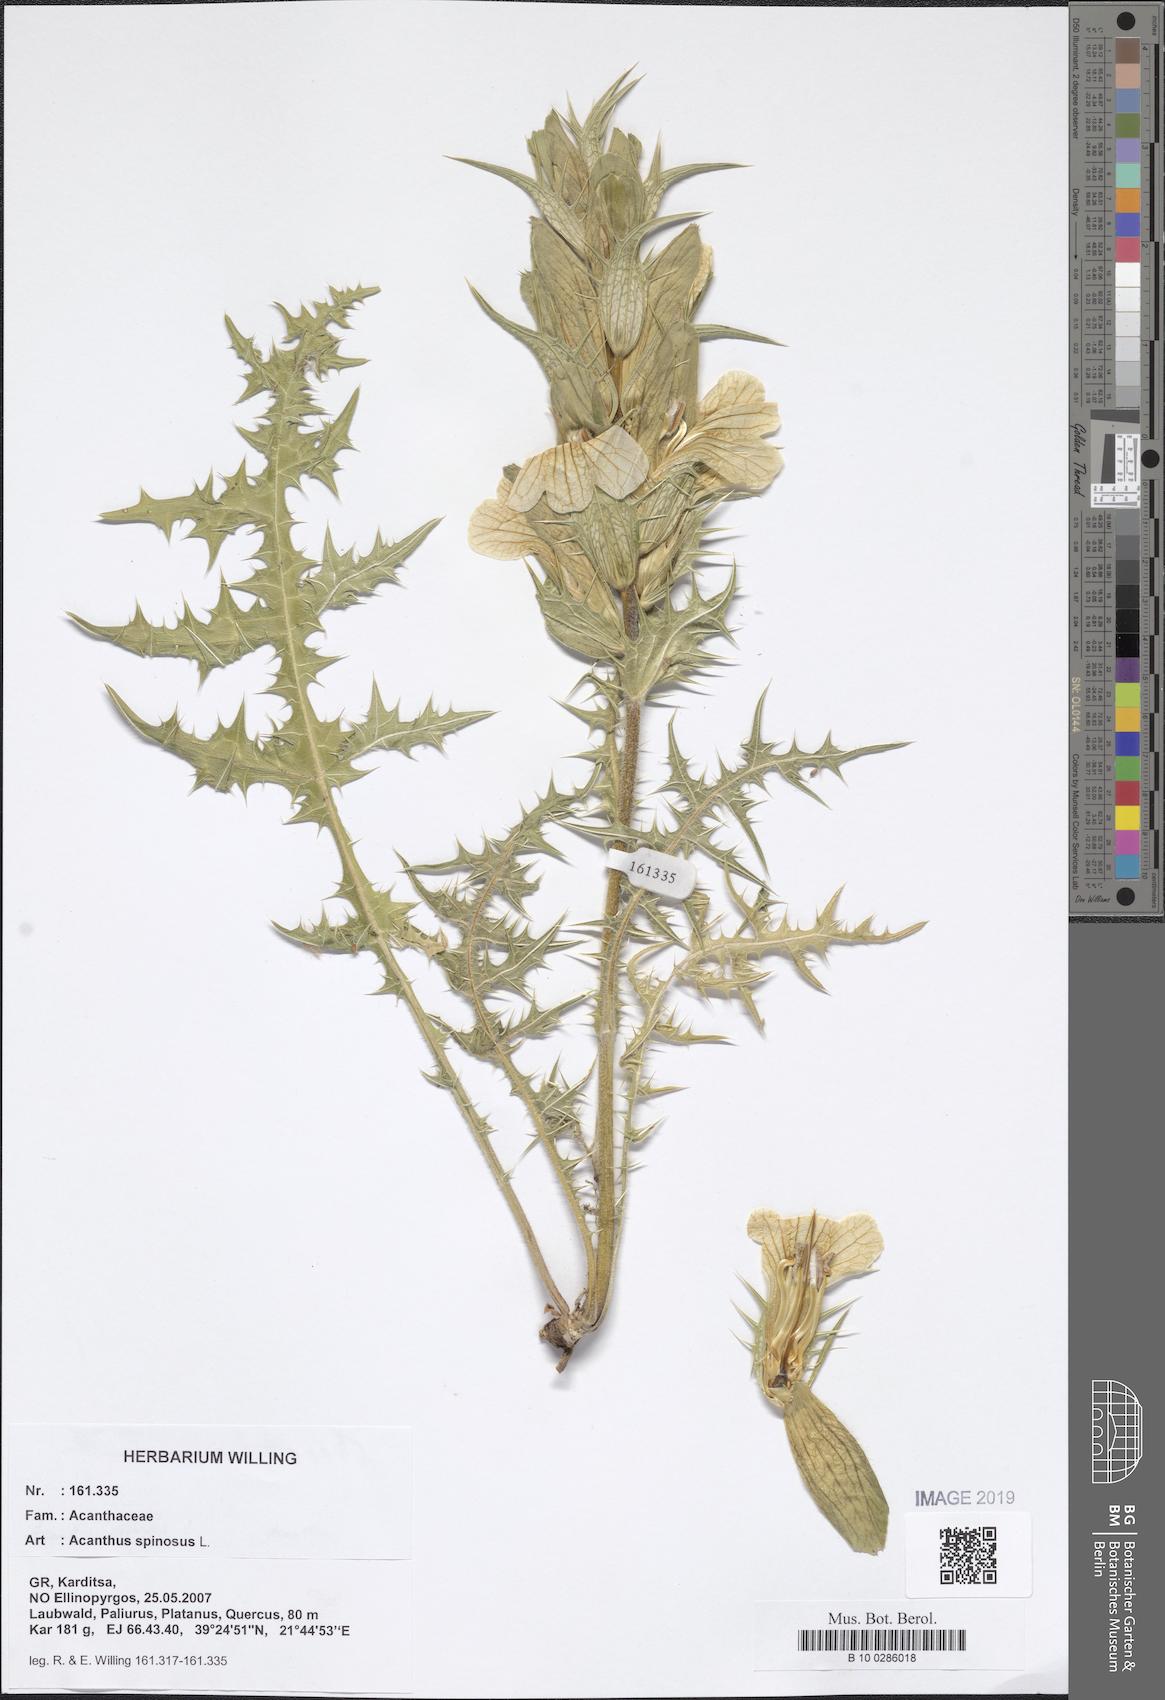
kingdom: Plantae
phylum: Tracheophyta
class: Magnoliopsida
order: Lamiales
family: Acanthaceae
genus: Acanthus
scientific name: Acanthus spinosus
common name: Spiny bear's-breech
